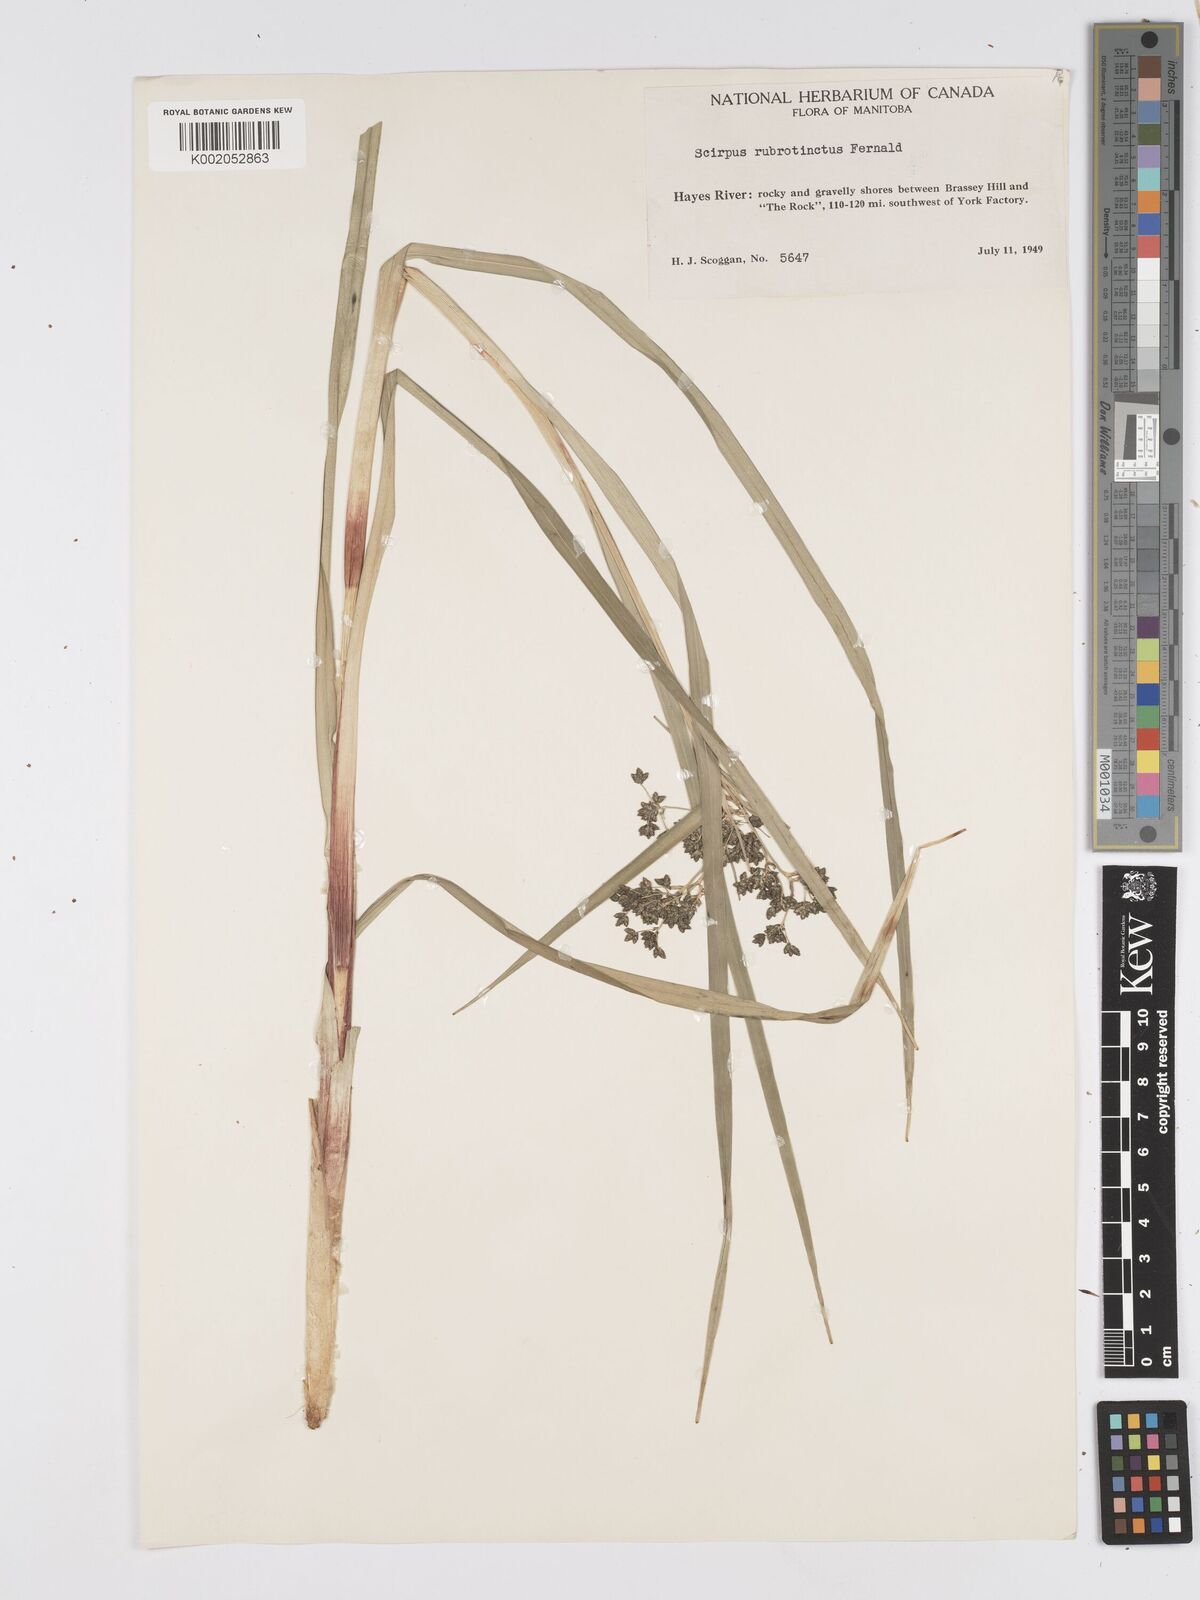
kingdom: Plantae
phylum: Tracheophyta
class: Liliopsida
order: Poales
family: Cyperaceae
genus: Scirpus
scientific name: Scirpus microcarpus
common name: Panicled bulrush
